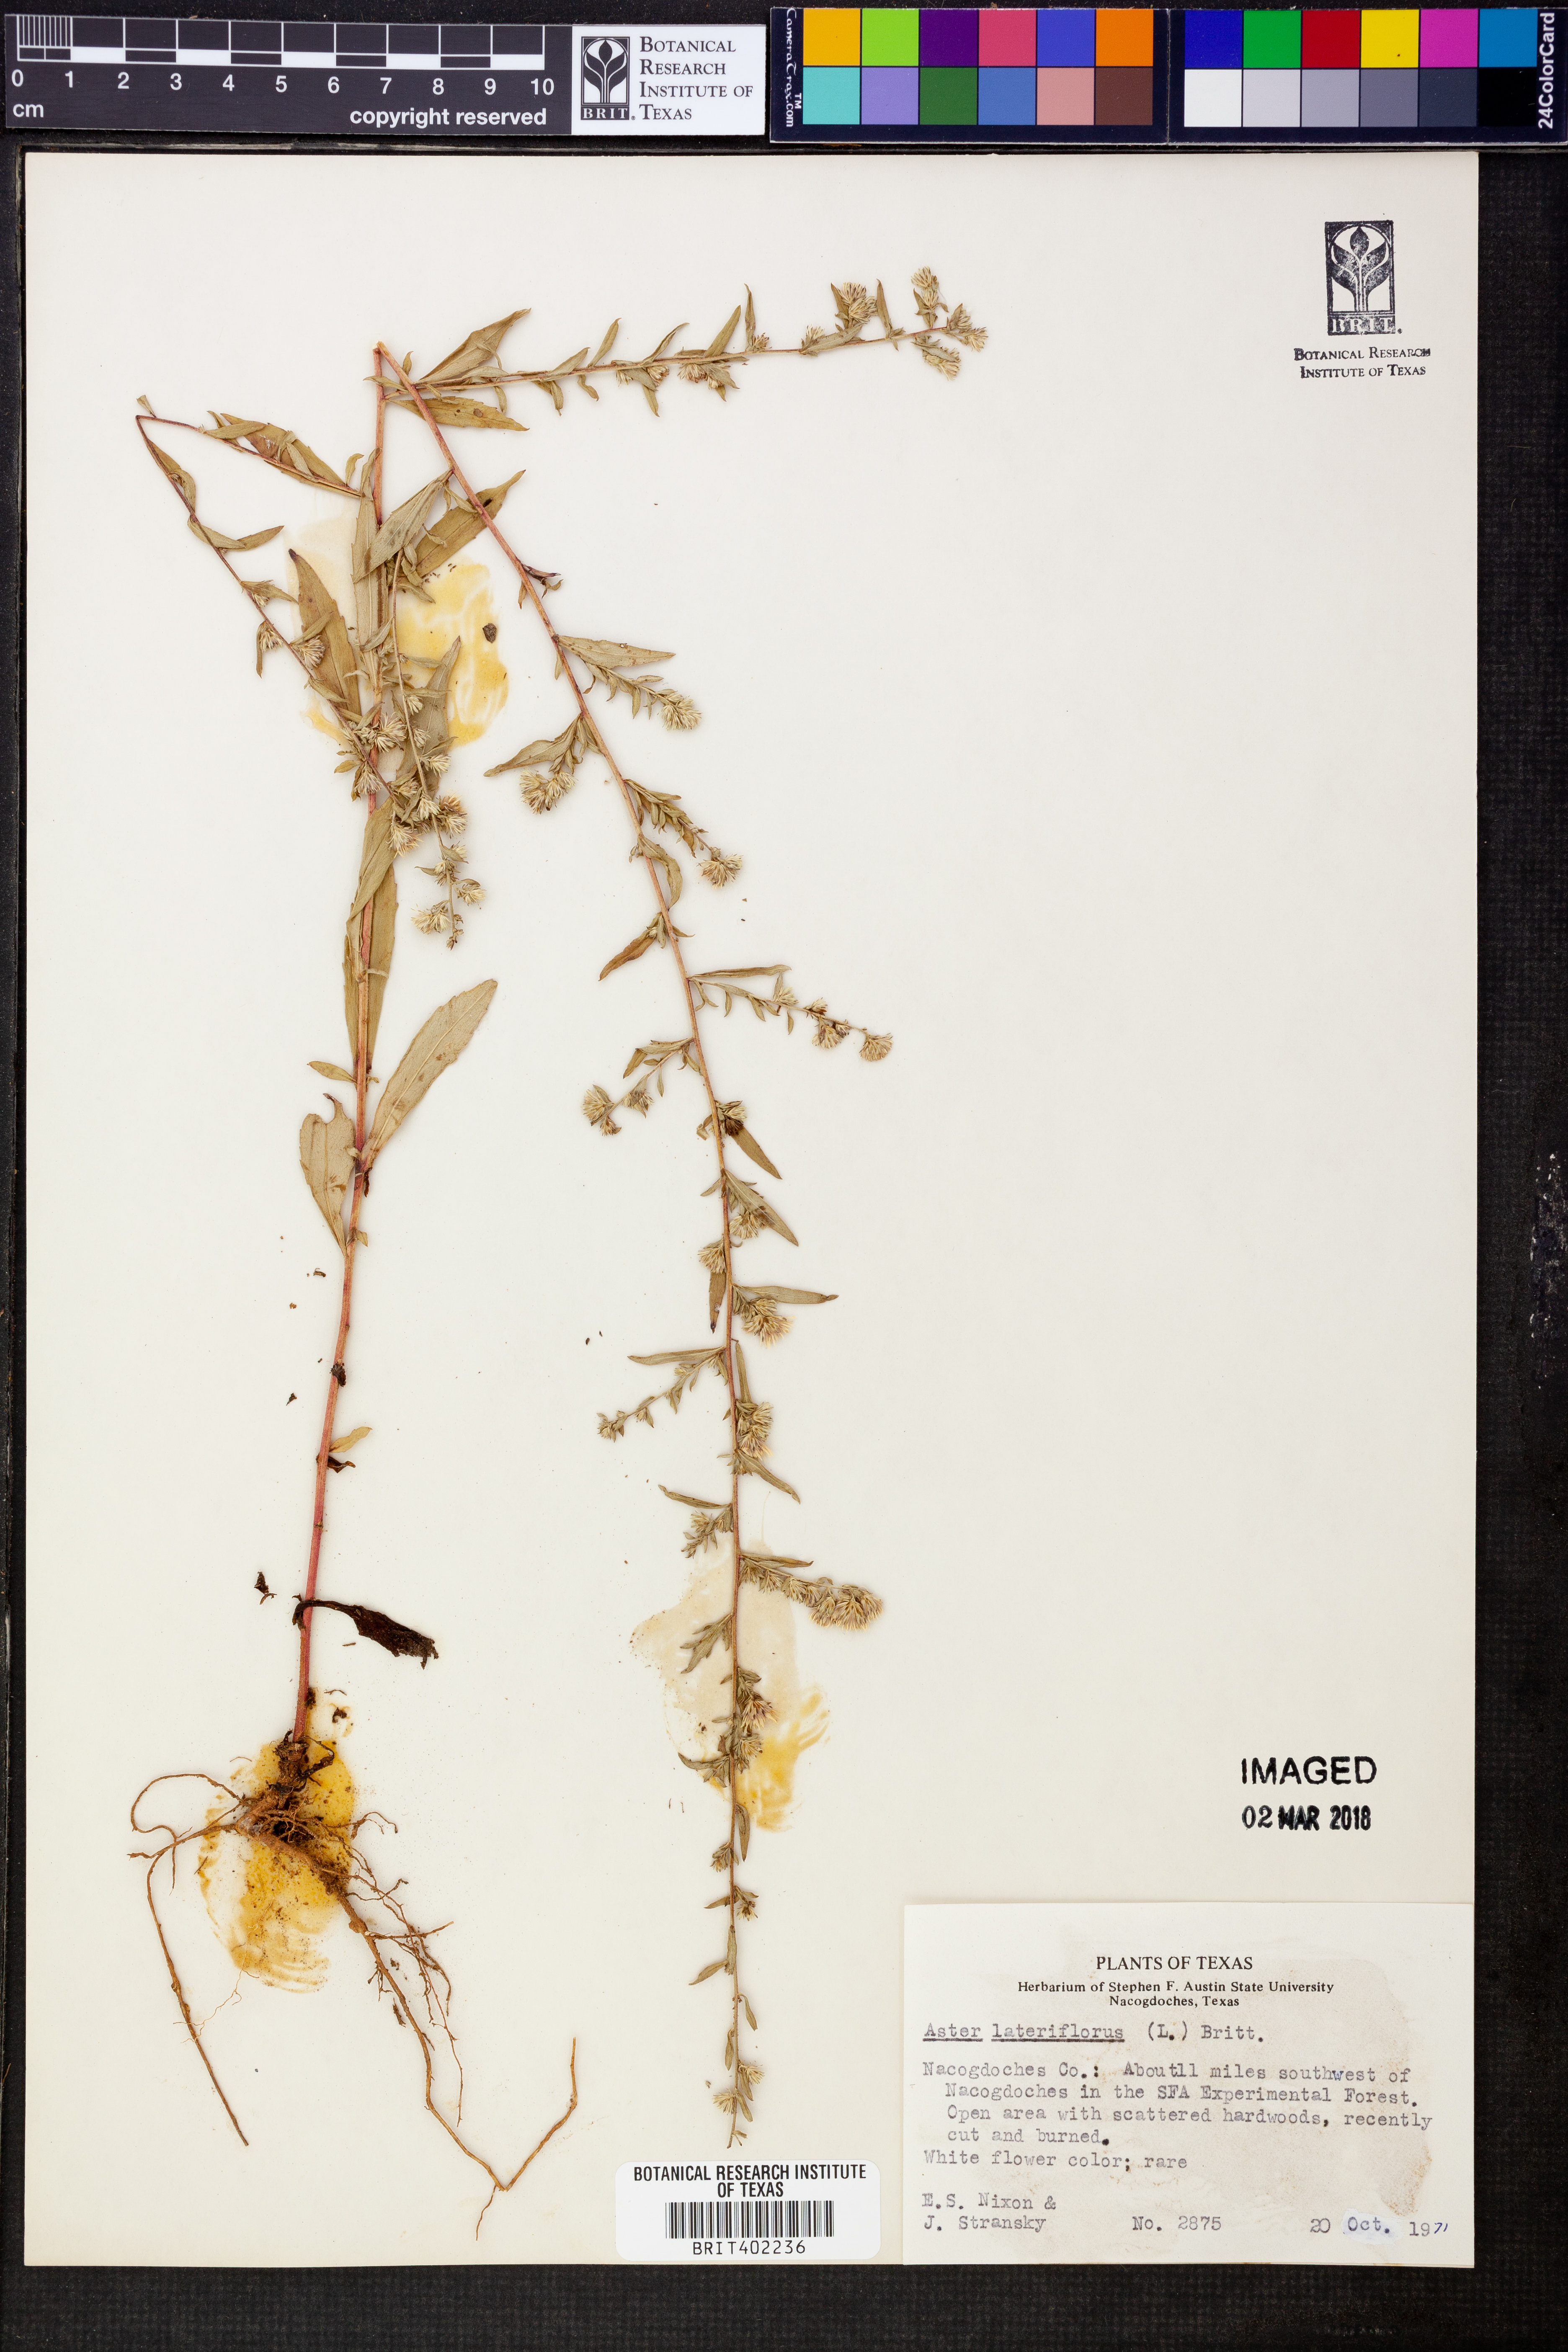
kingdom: Plantae
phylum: Tracheophyta
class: Magnoliopsida
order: Asterales
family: Asteraceae
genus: Symphyotrichum
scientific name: Symphyotrichum lateriflorum
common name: Calico aster
